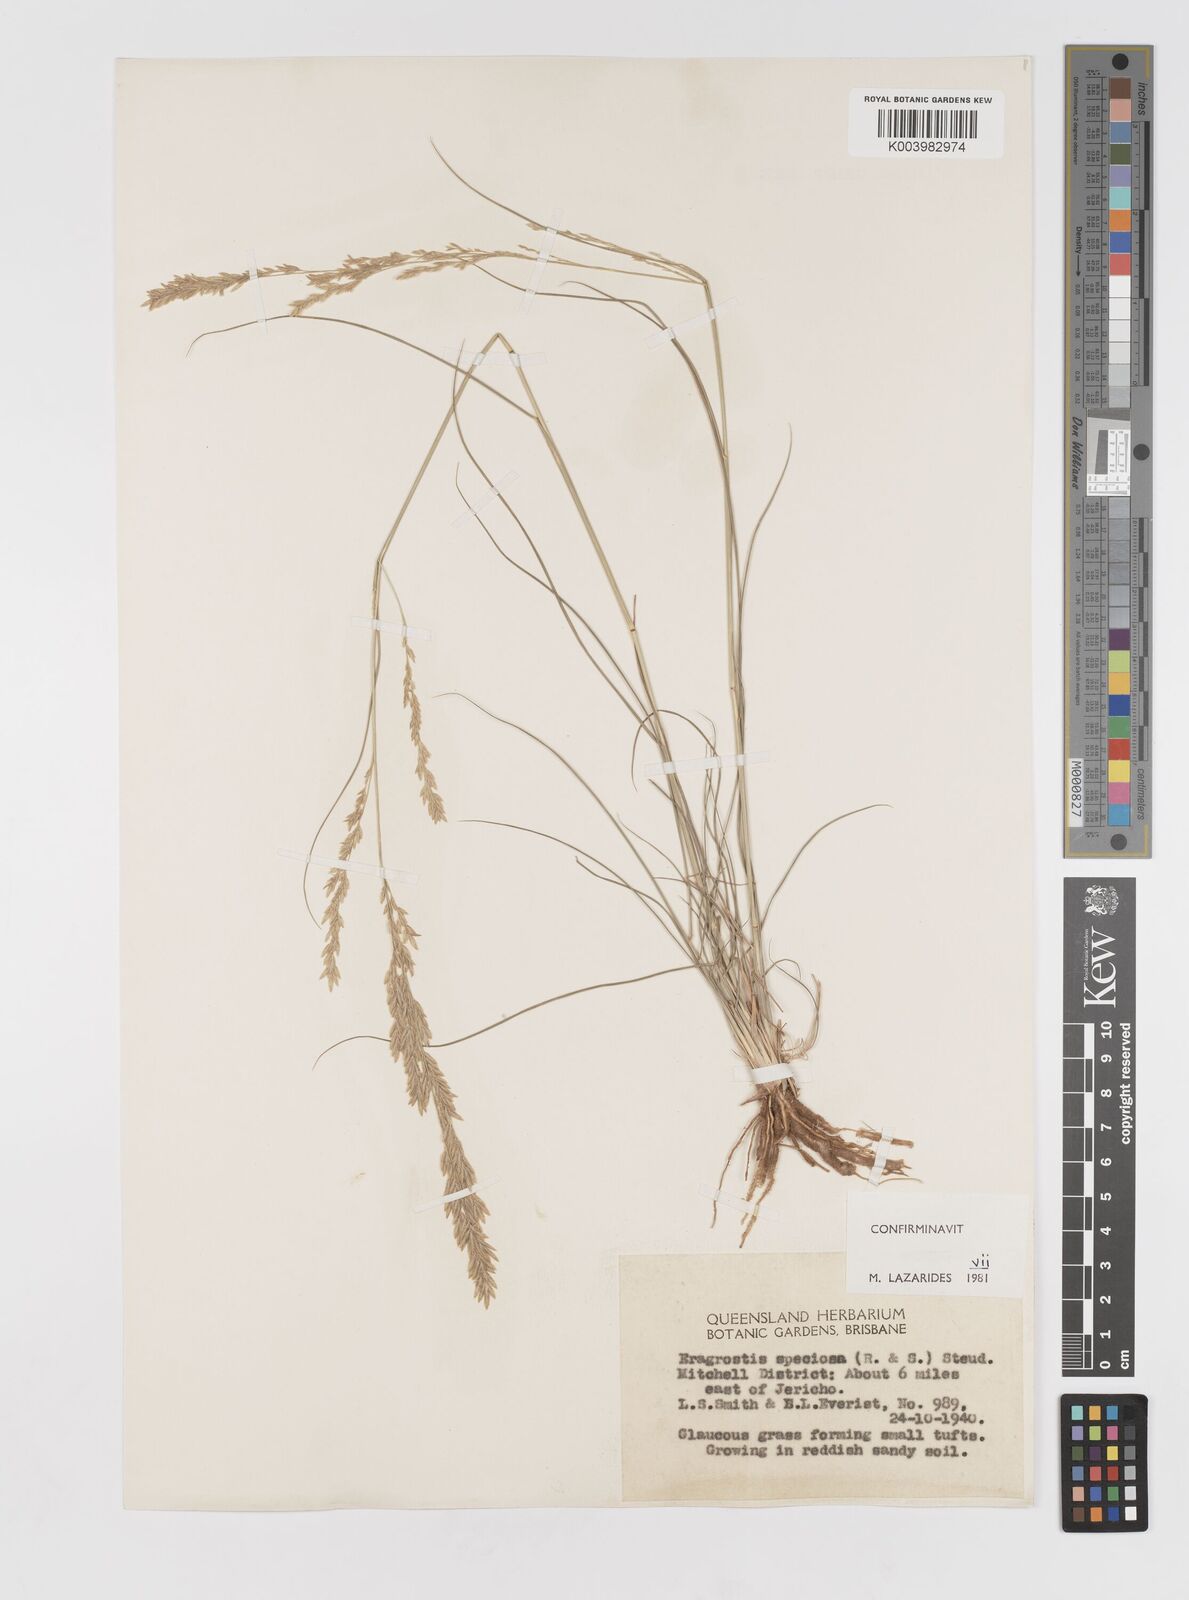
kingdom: Plantae
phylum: Tracheophyta
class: Liliopsida
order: Poales
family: Poaceae
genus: Eragrostis
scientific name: Eragrostis speciosa
